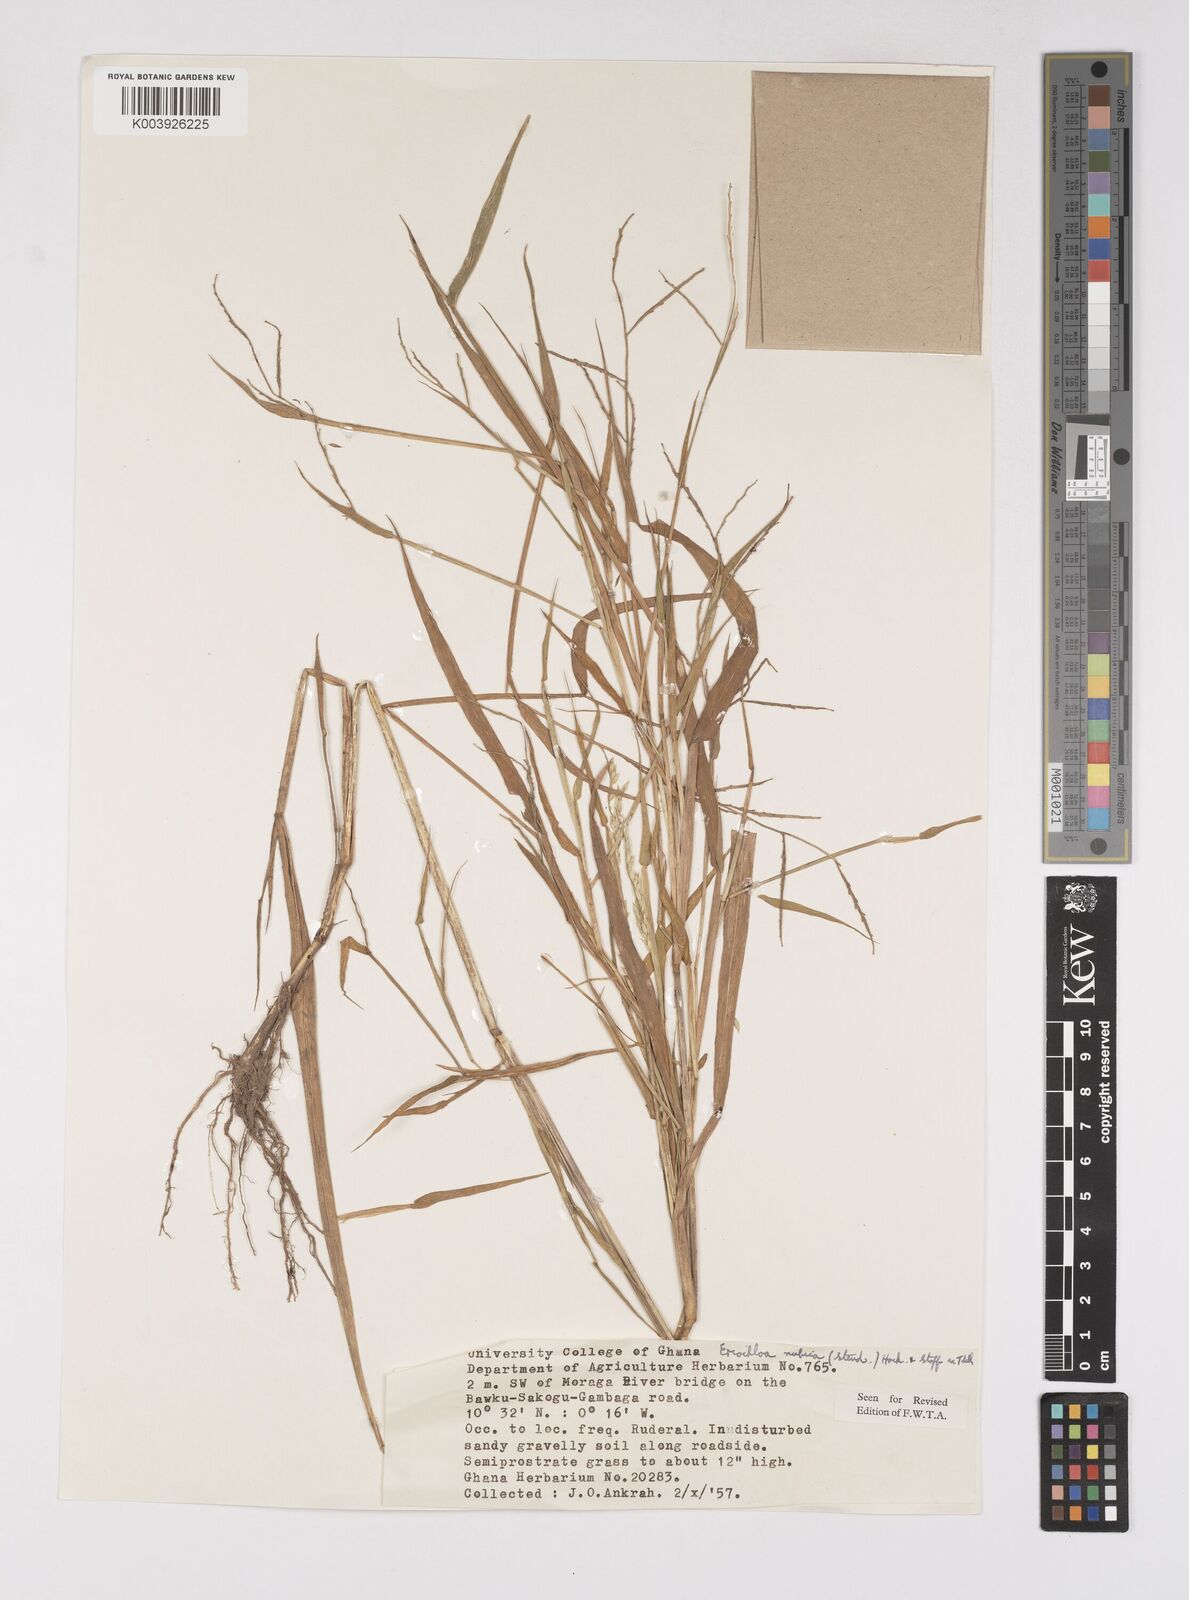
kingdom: Plantae
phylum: Tracheophyta
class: Liliopsida
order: Poales
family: Poaceae
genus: Eriochloa
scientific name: Eriochloa barbatus
